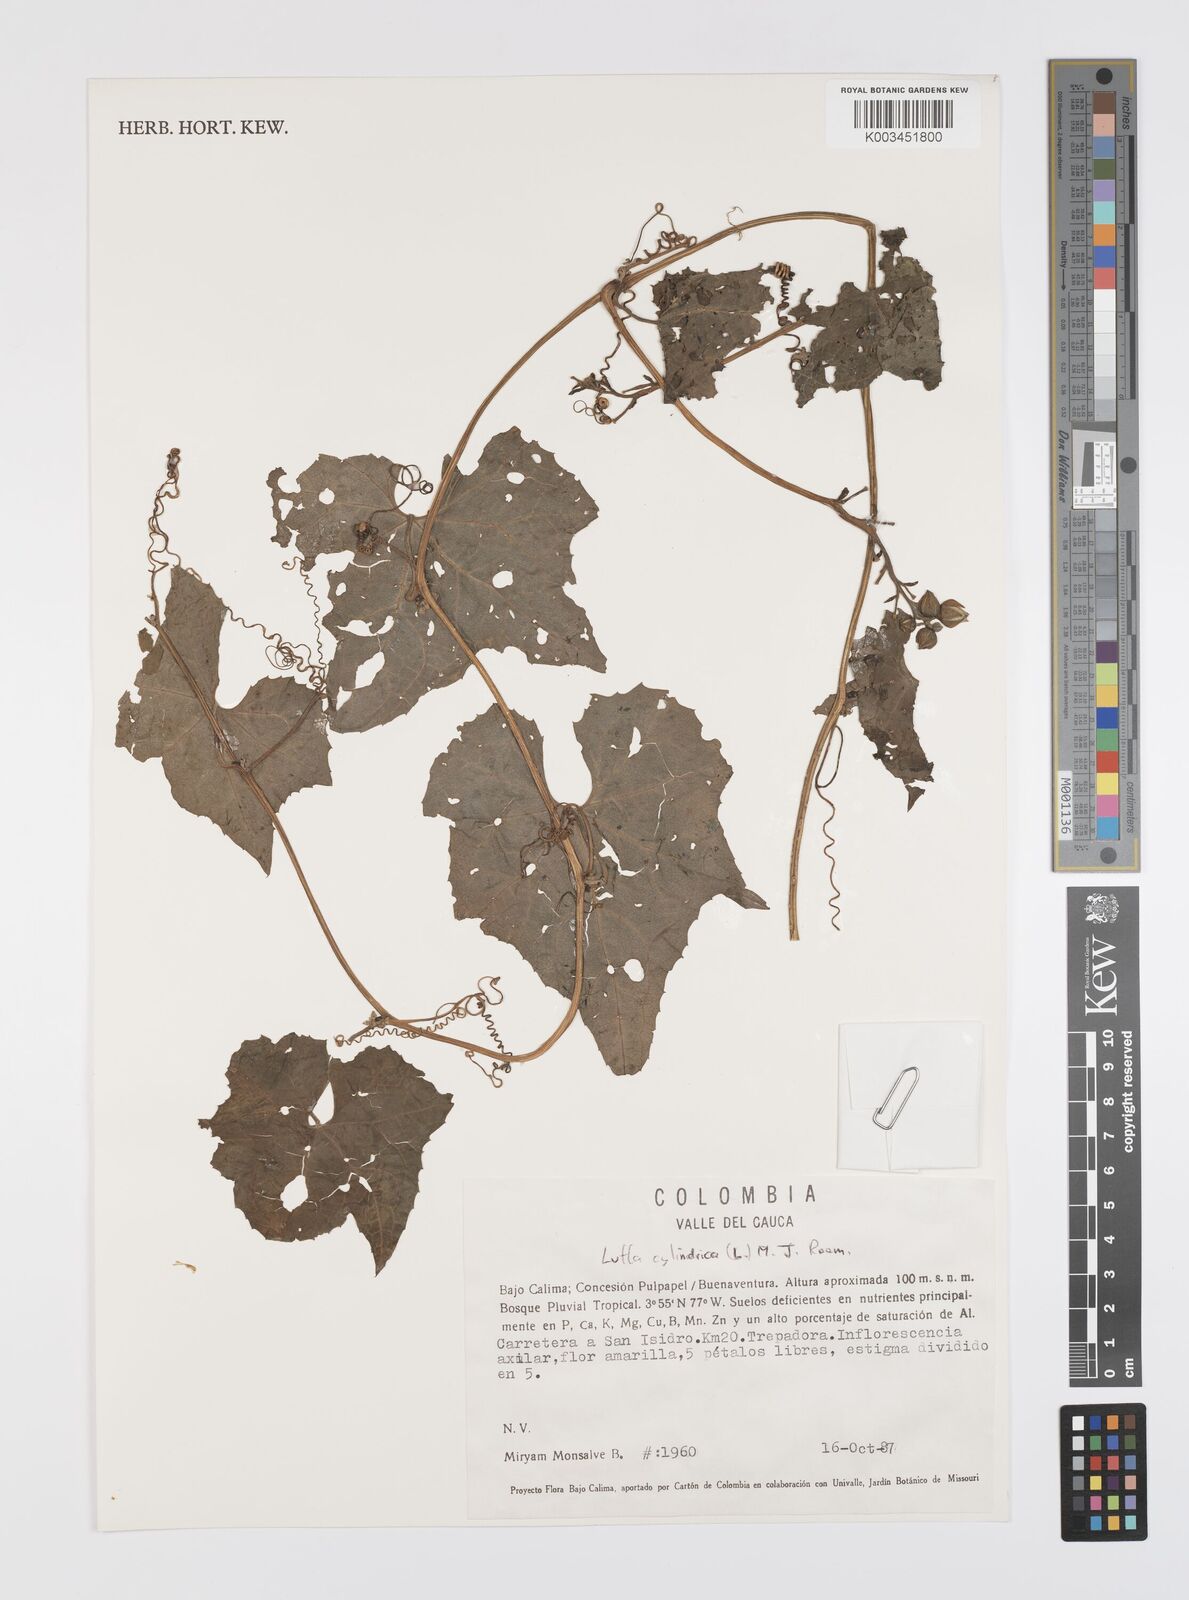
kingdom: Plantae
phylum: Tracheophyta
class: Magnoliopsida
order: Cucurbitales
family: Cucurbitaceae
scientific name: Cucurbitaceae
